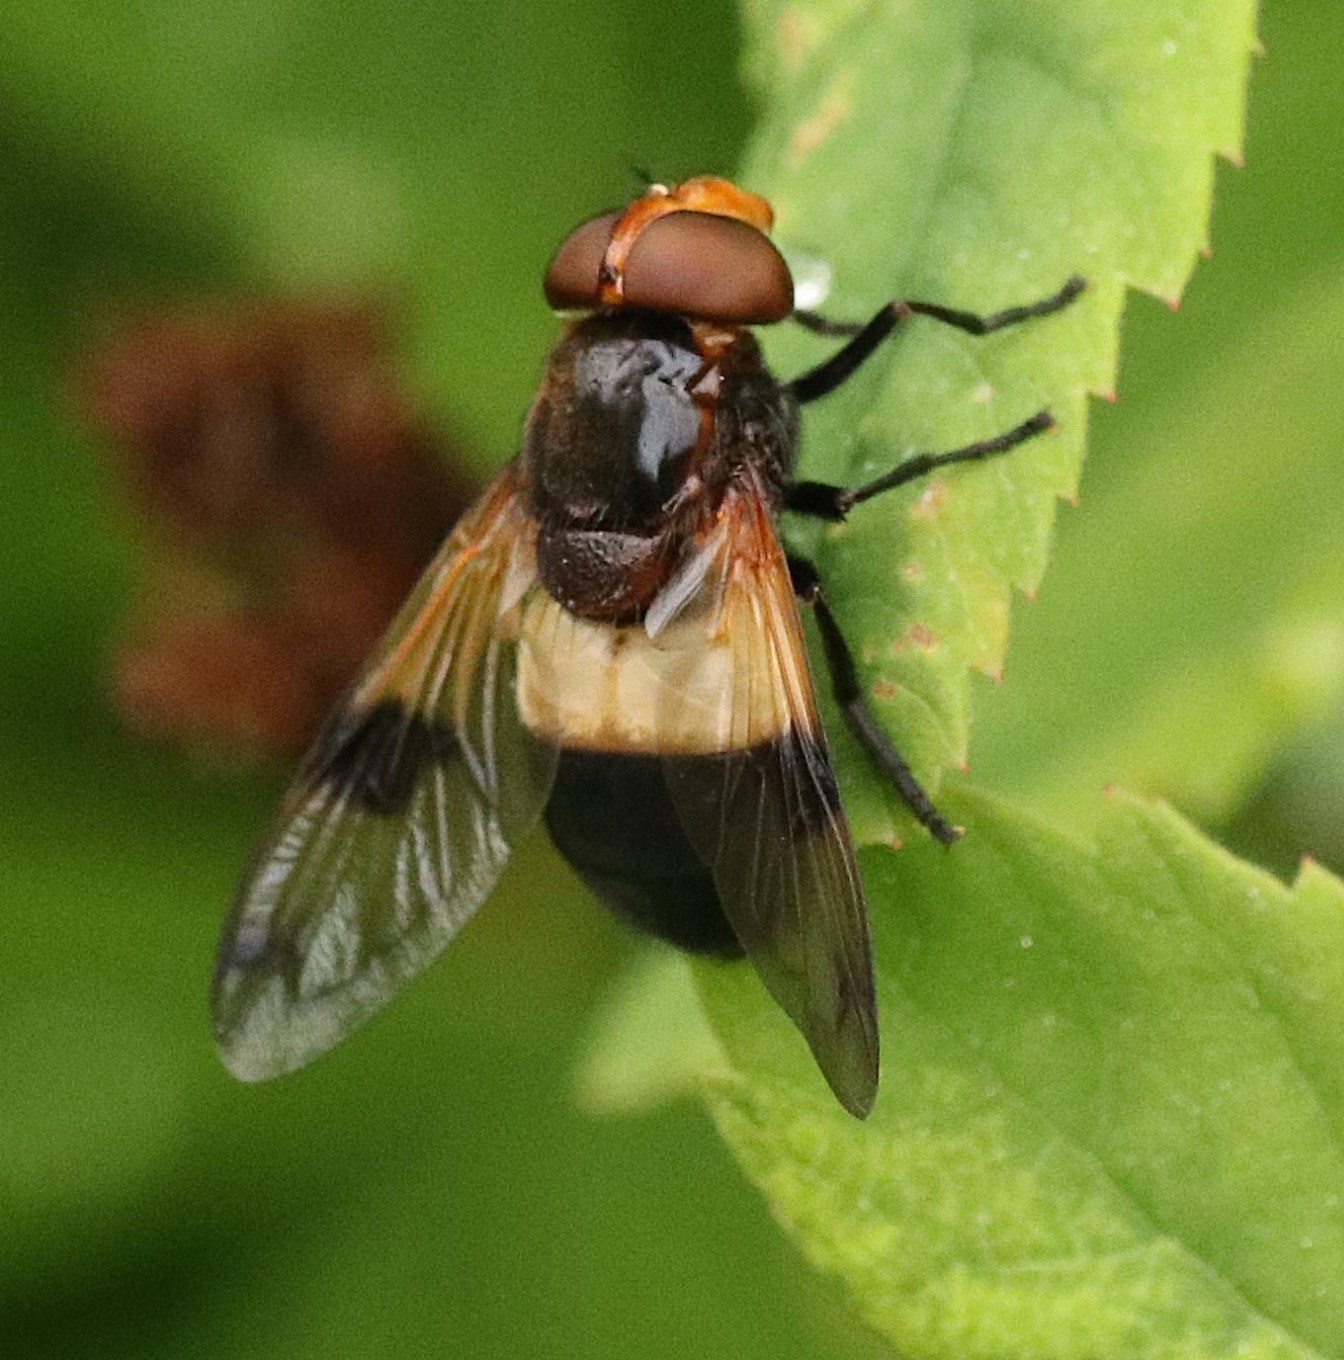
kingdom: Animalia
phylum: Arthropoda
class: Insecta
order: Diptera
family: Syrphidae
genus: Volucella
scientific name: Volucella pellucens
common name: Hvidbåndet humlesvirreflue
